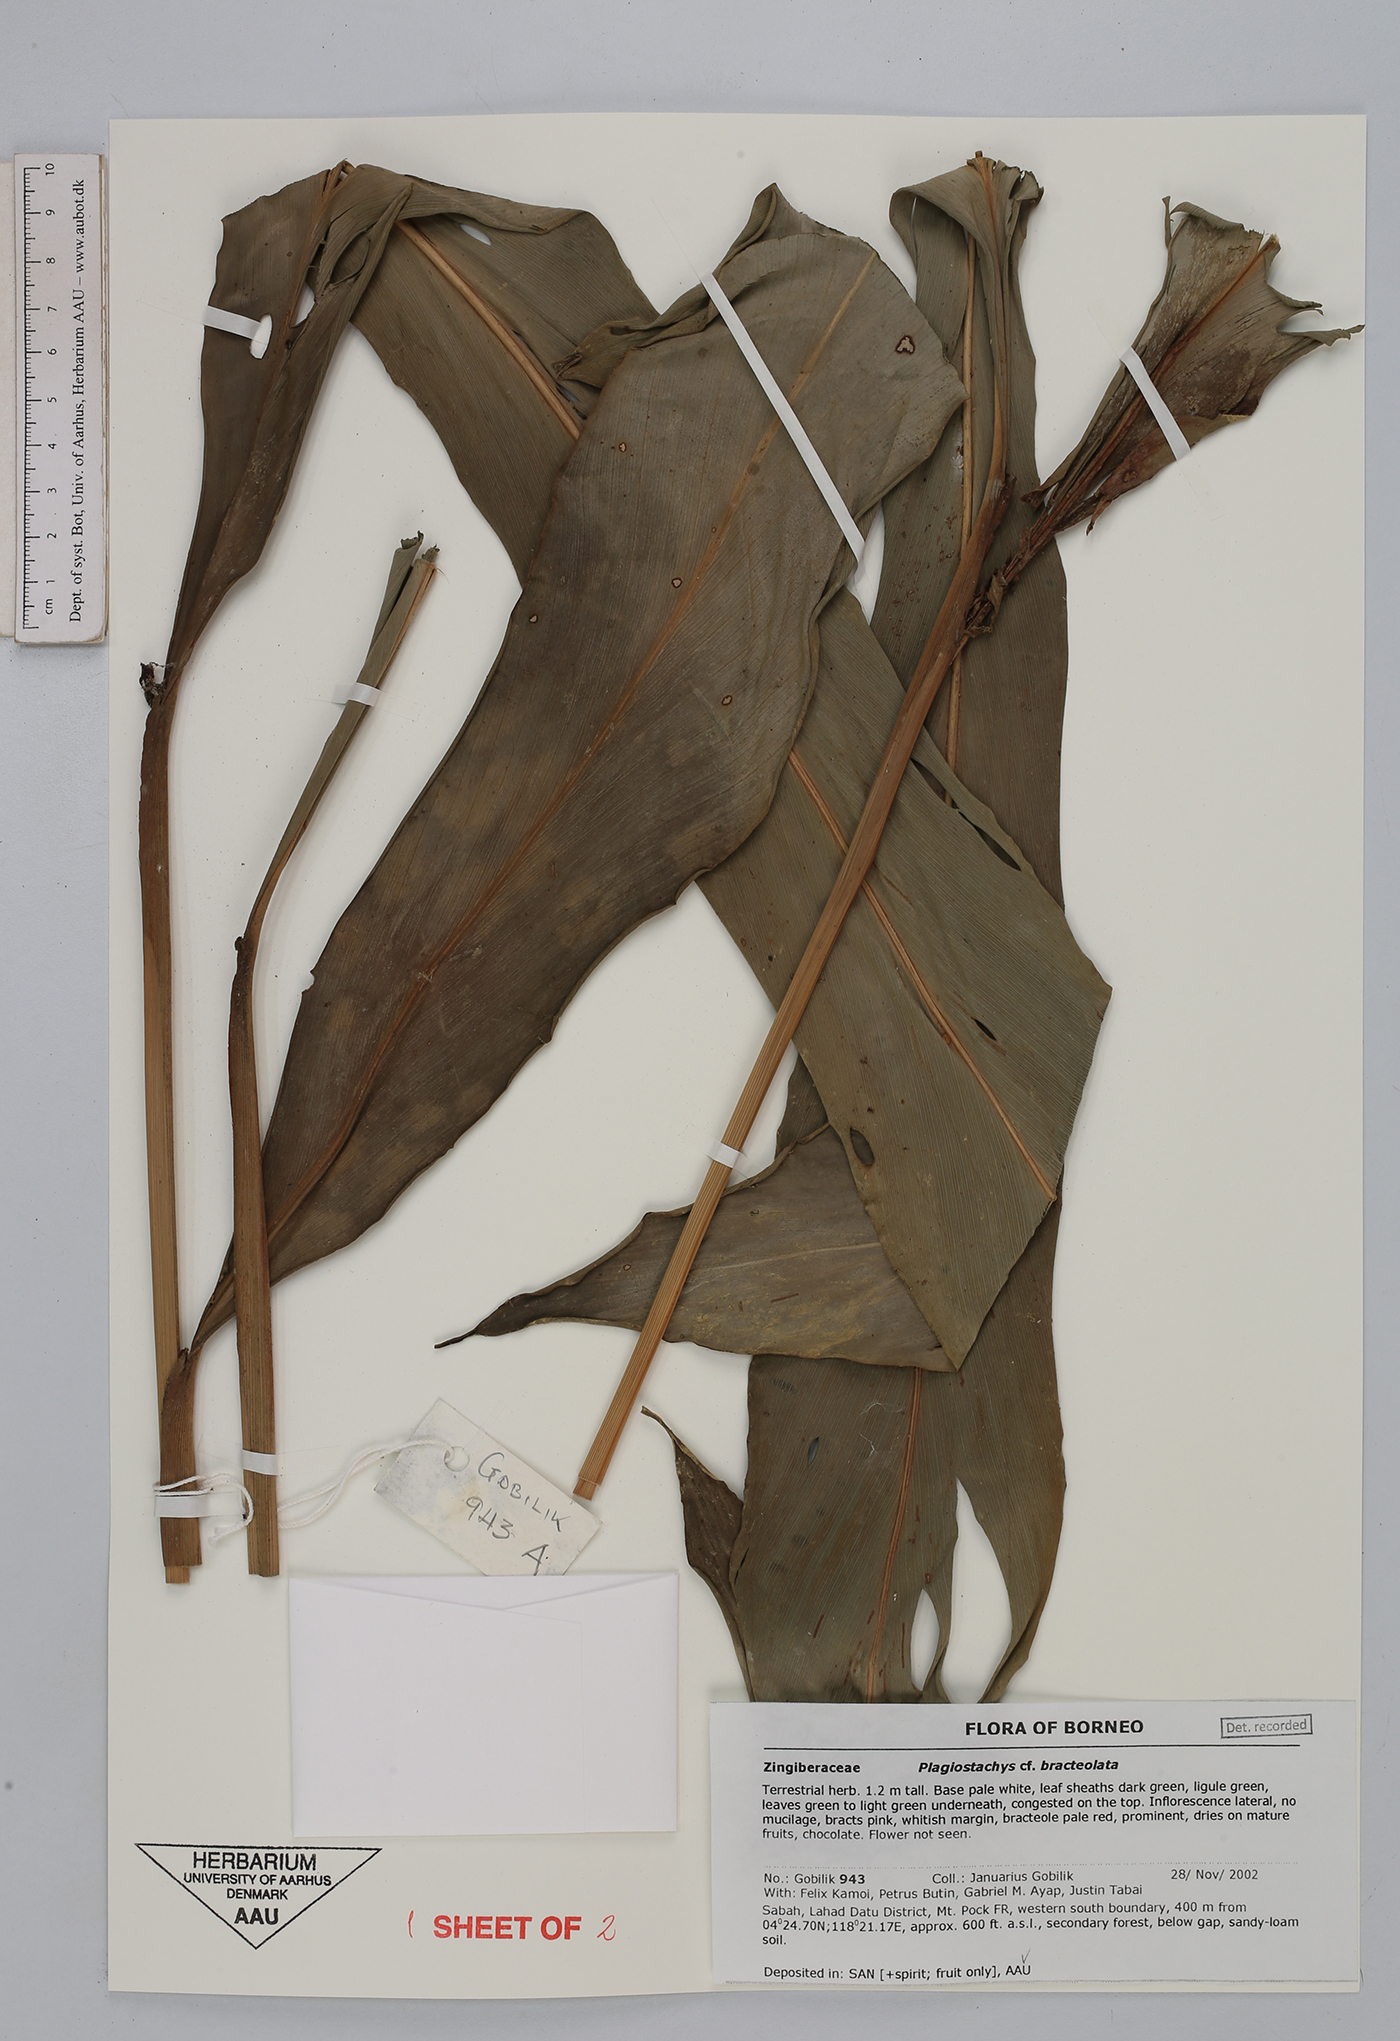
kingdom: Plantae
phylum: Tracheophyta
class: Liliopsida
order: Zingiberales
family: Zingiberaceae
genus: Plagiostachys
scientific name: Plagiostachys bracteolata
